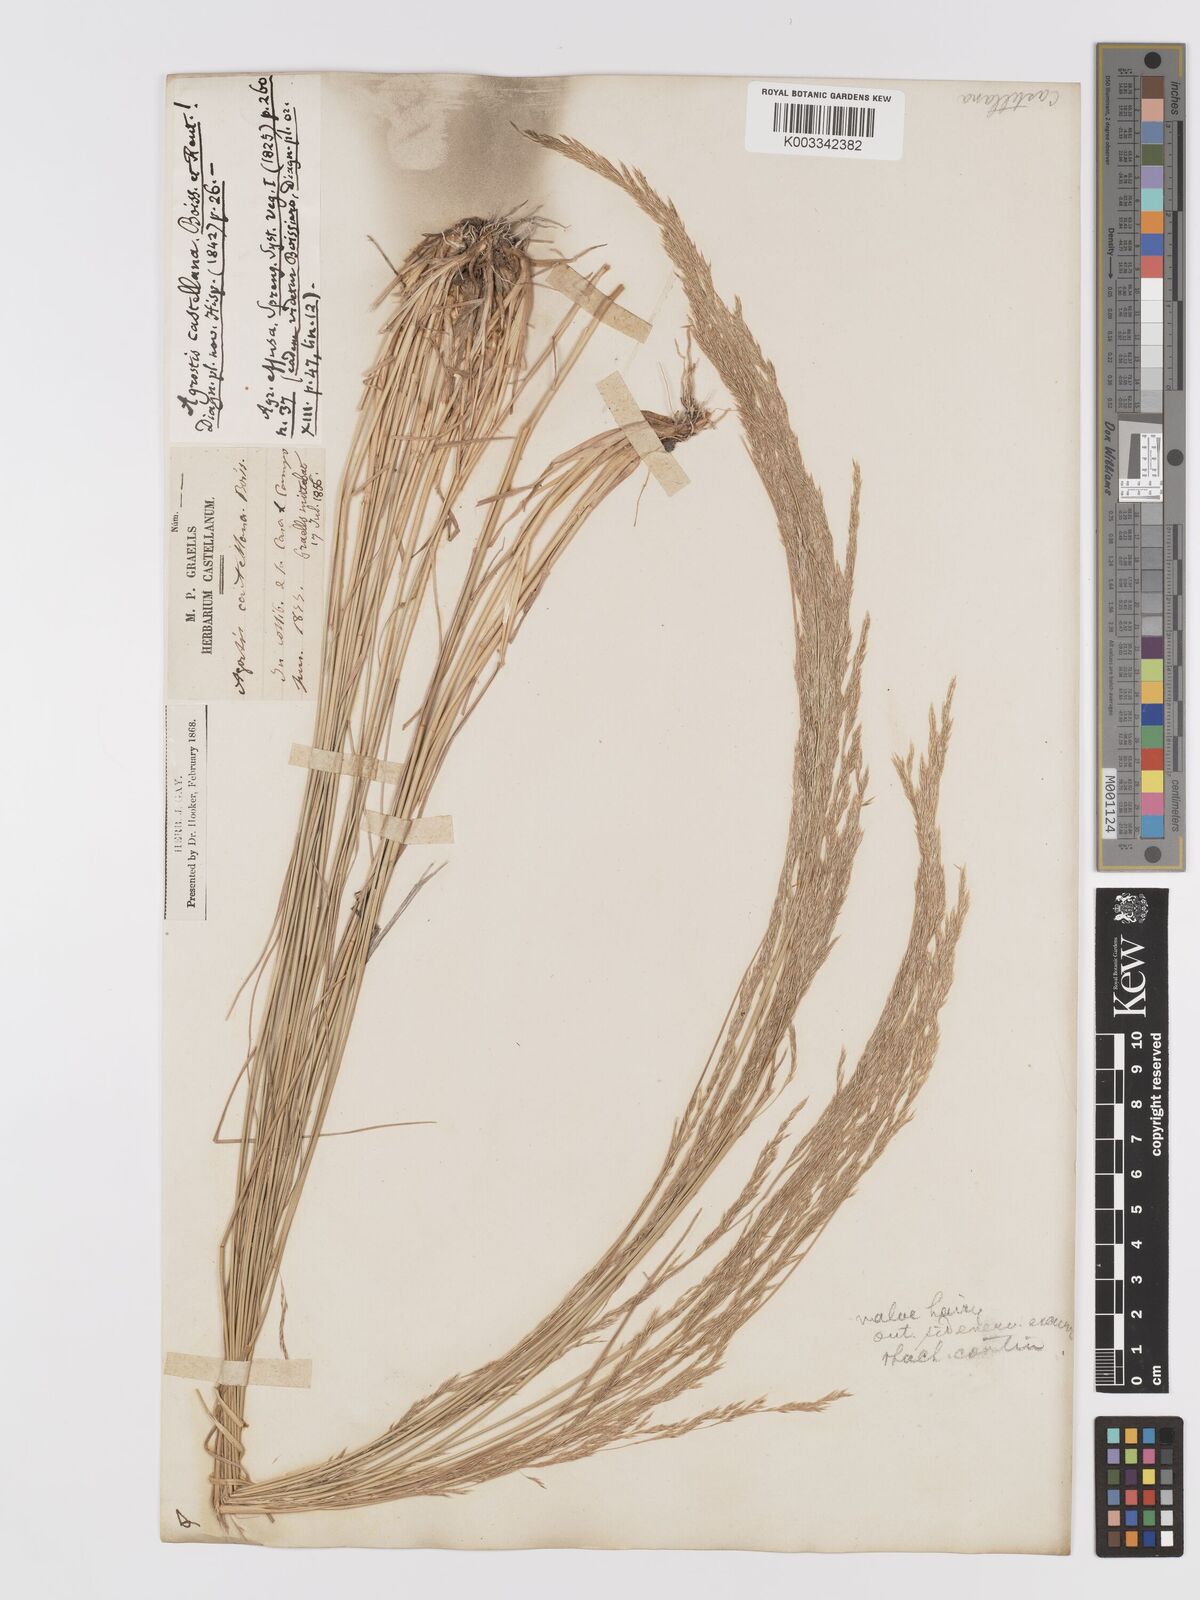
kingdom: Plantae
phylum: Tracheophyta
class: Liliopsida
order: Poales
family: Poaceae
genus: Agrostis
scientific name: Agrostis castriferrei
